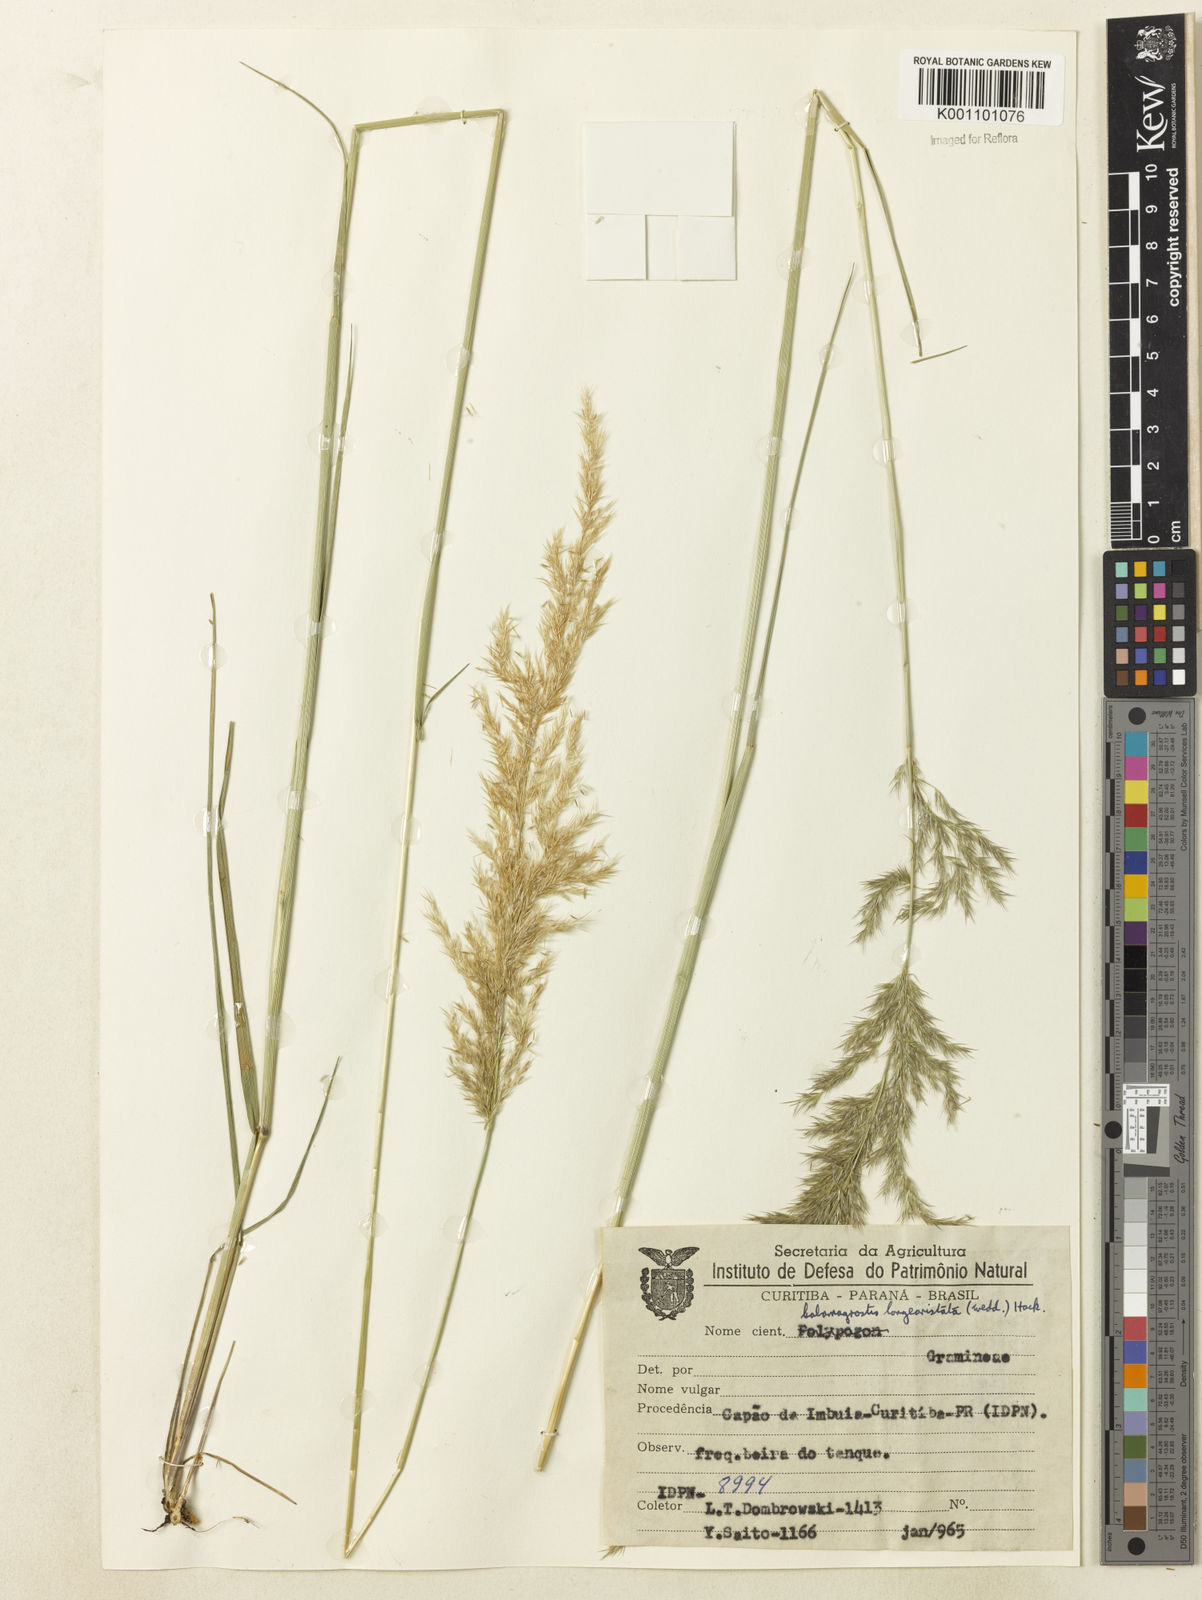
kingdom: Plantae
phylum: Tracheophyta
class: Liliopsida
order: Poales
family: Poaceae
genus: Cinnagrostis
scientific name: Cinnagrostis viridiflavescens
